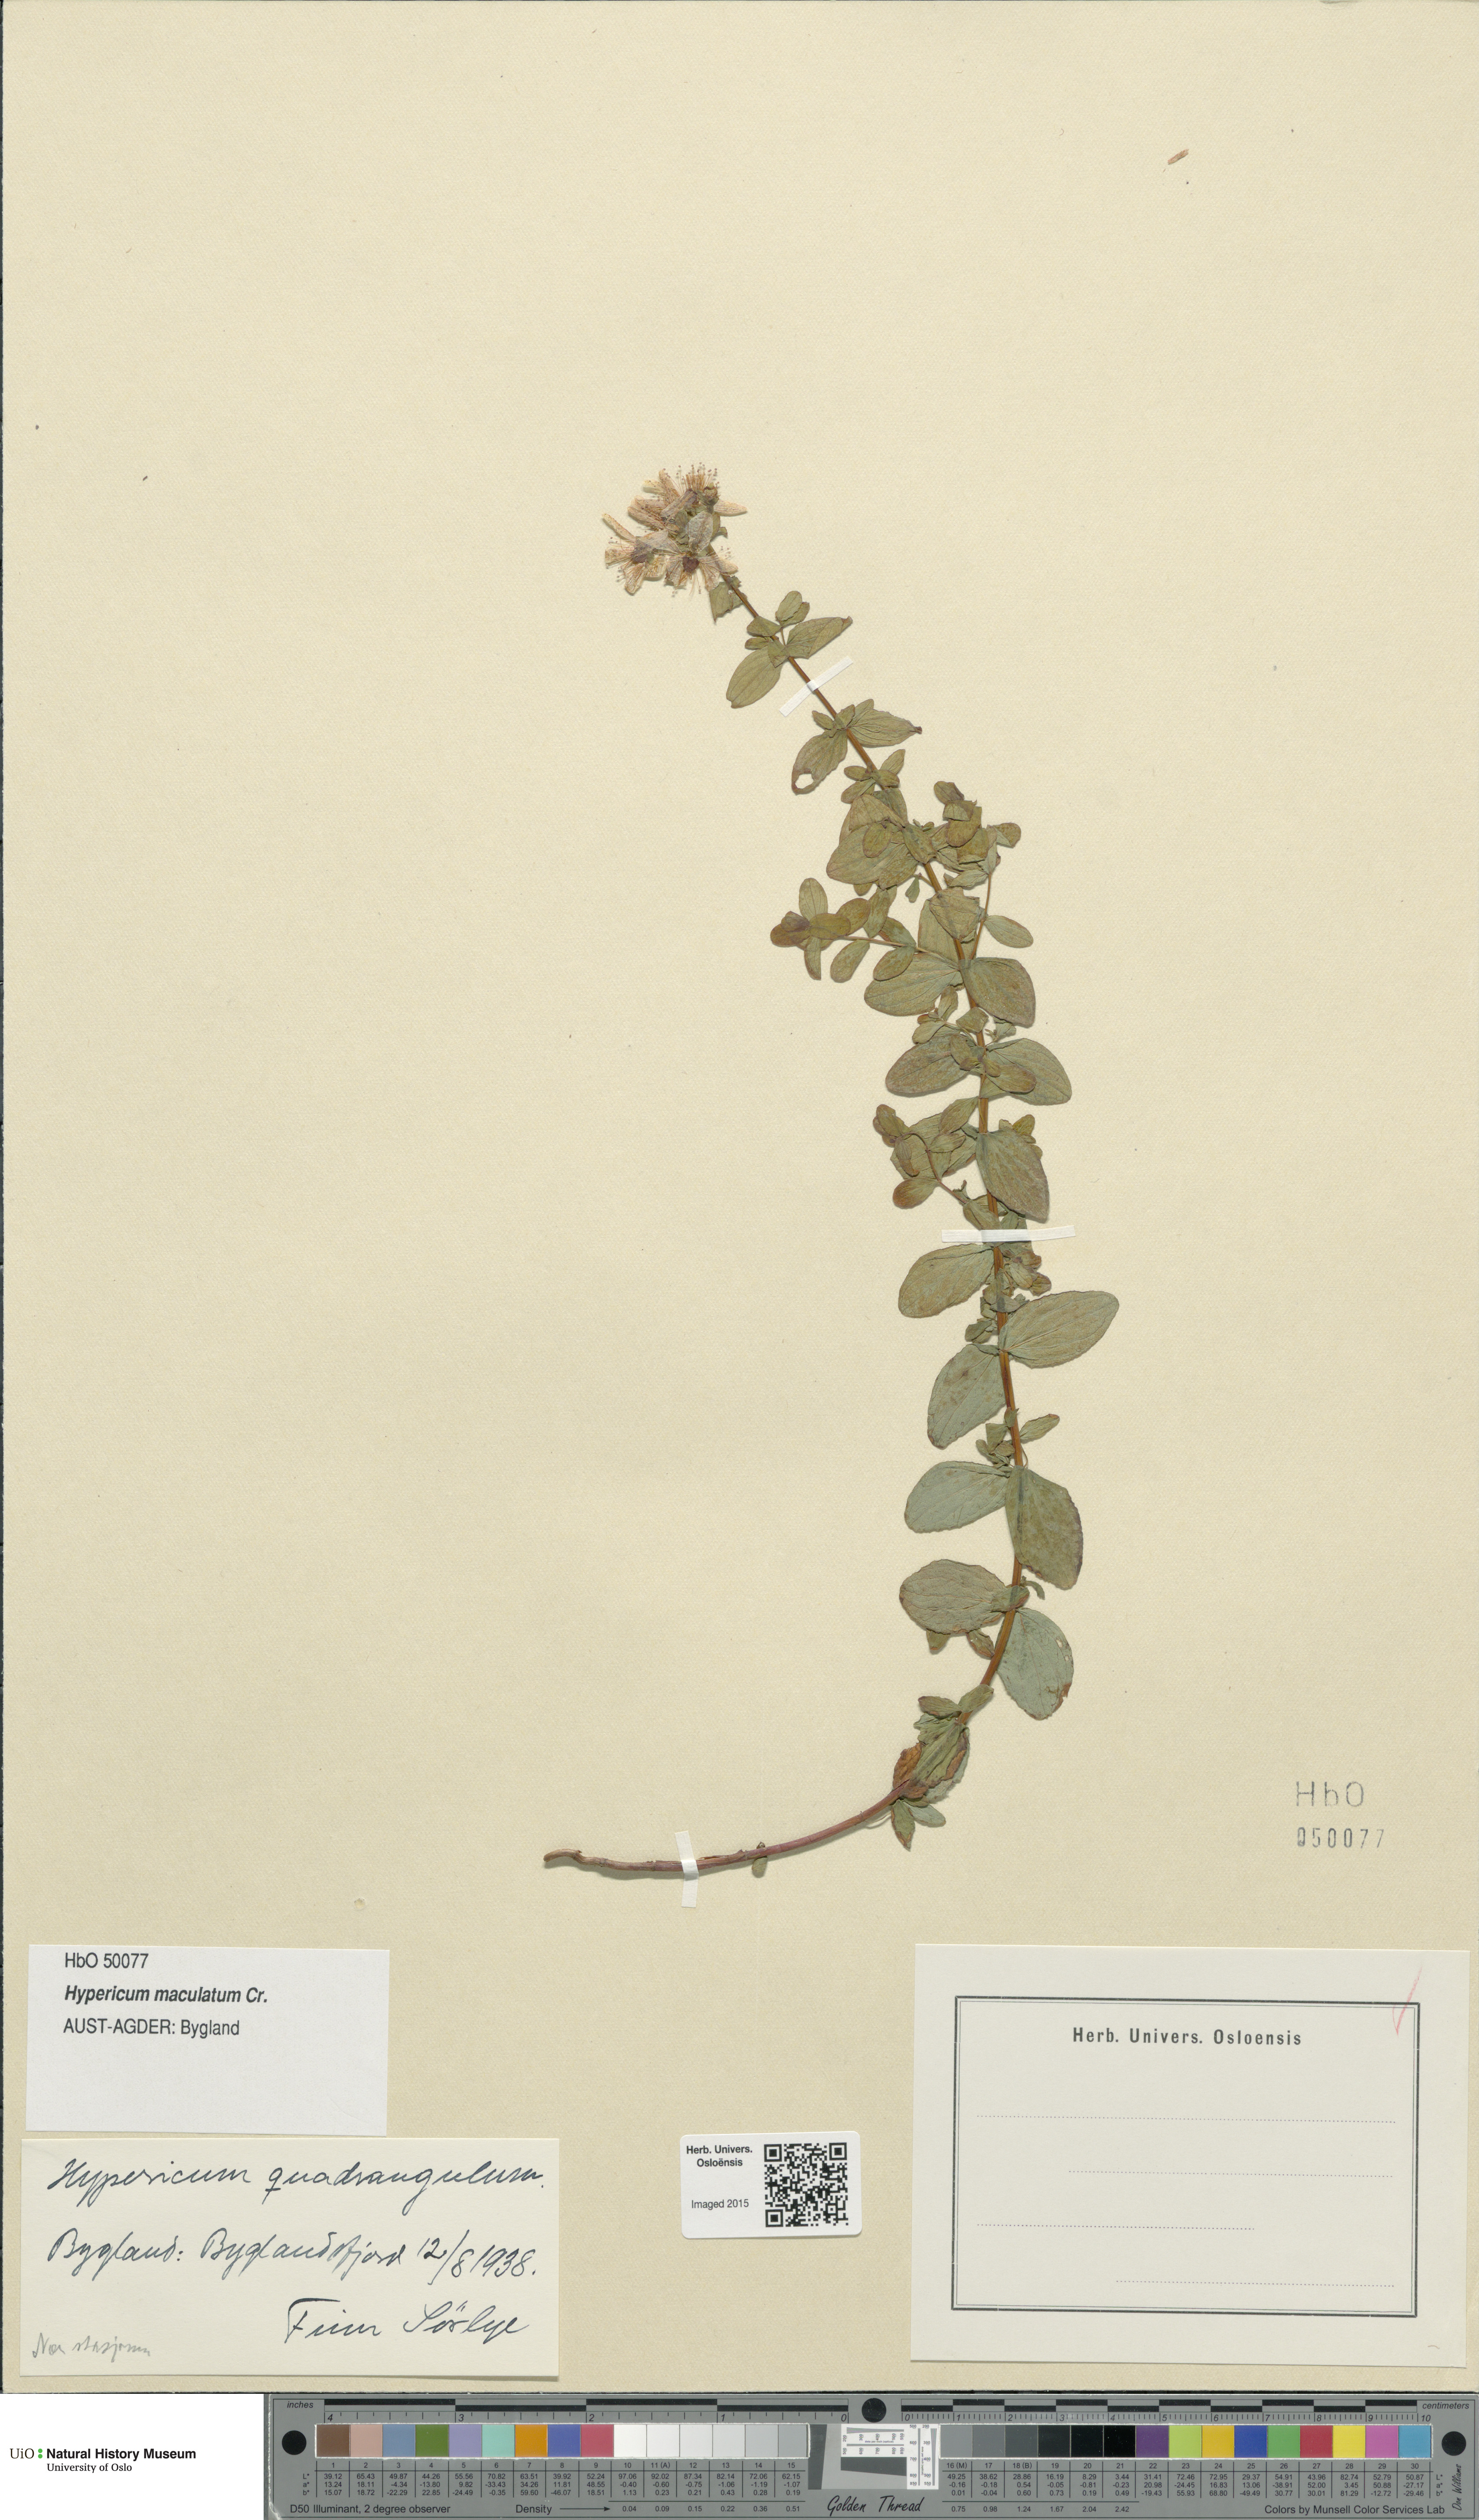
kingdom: Plantae
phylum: Tracheophyta
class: Magnoliopsida
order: Malpighiales
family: Hypericaceae
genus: Hypericum
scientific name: Hypericum maculatum
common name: Imperforate st. john's-wort
